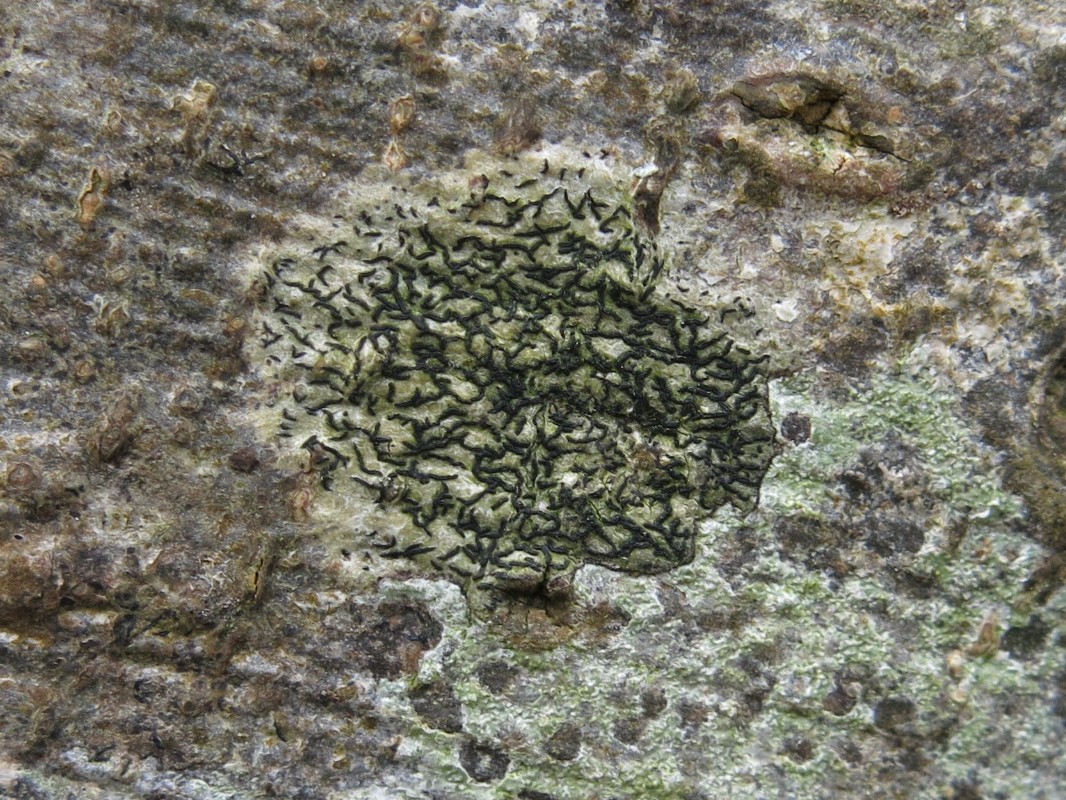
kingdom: Fungi
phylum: Ascomycota
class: Arthoniomycetes
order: Arthoniales
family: Arthoniaceae
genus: Arthonia
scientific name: Arthonia atra
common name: sort bogstavlav
